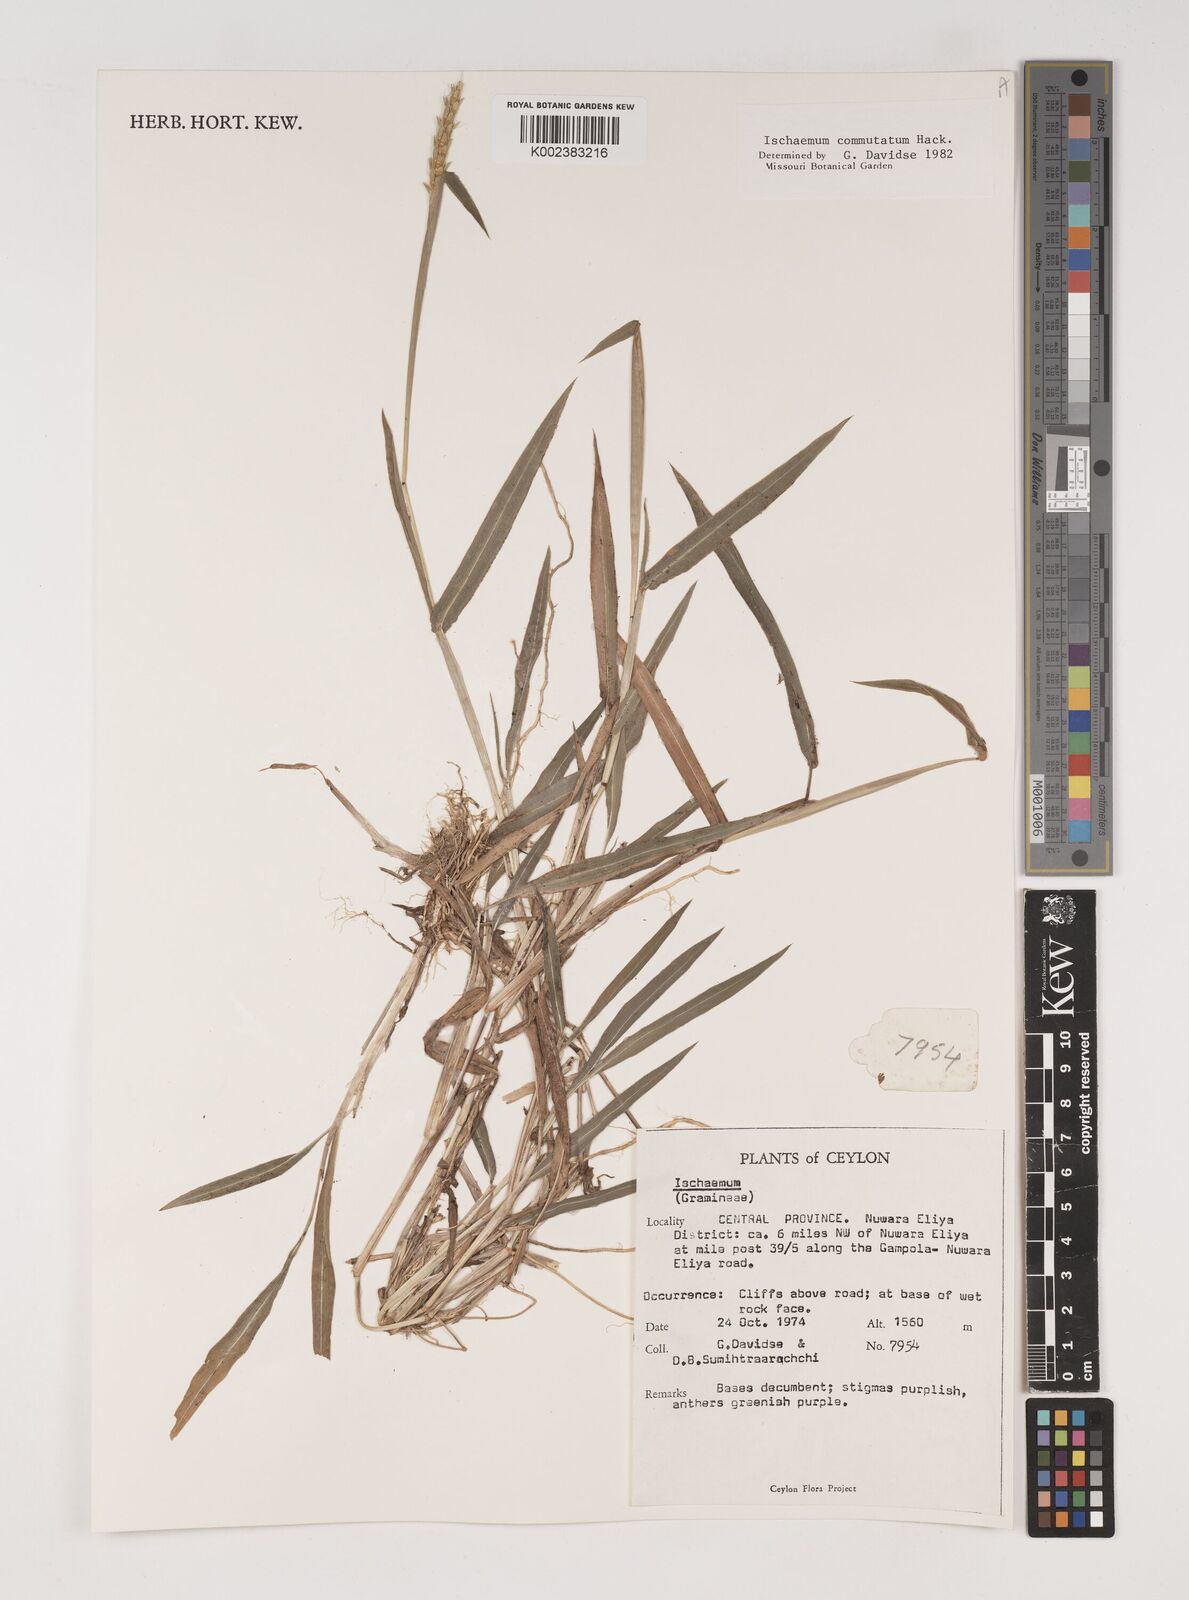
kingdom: Plantae
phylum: Tracheophyta
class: Liliopsida
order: Poales
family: Poaceae
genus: Ischaemum
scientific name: Ischaemum commutatum
